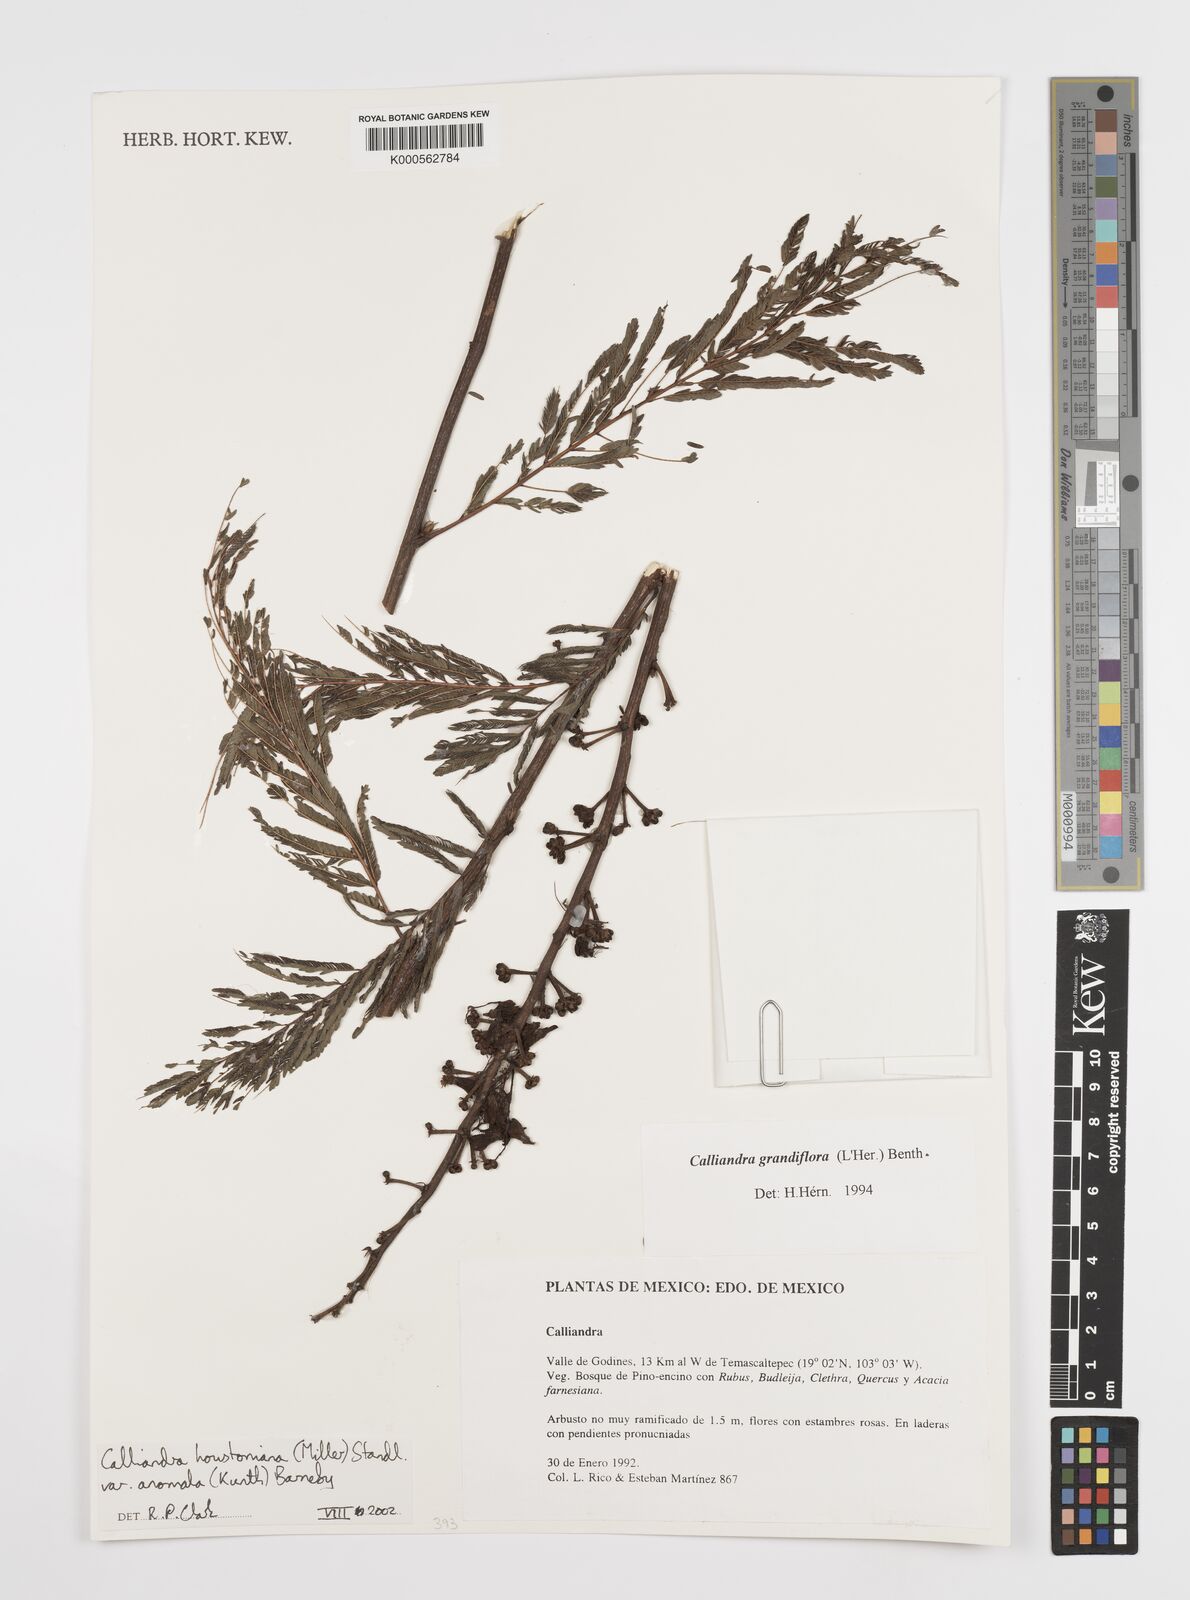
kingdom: Plantae
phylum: Tracheophyta
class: Magnoliopsida
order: Fabales
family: Fabaceae
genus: Calliandra
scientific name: Calliandra houstoniana
